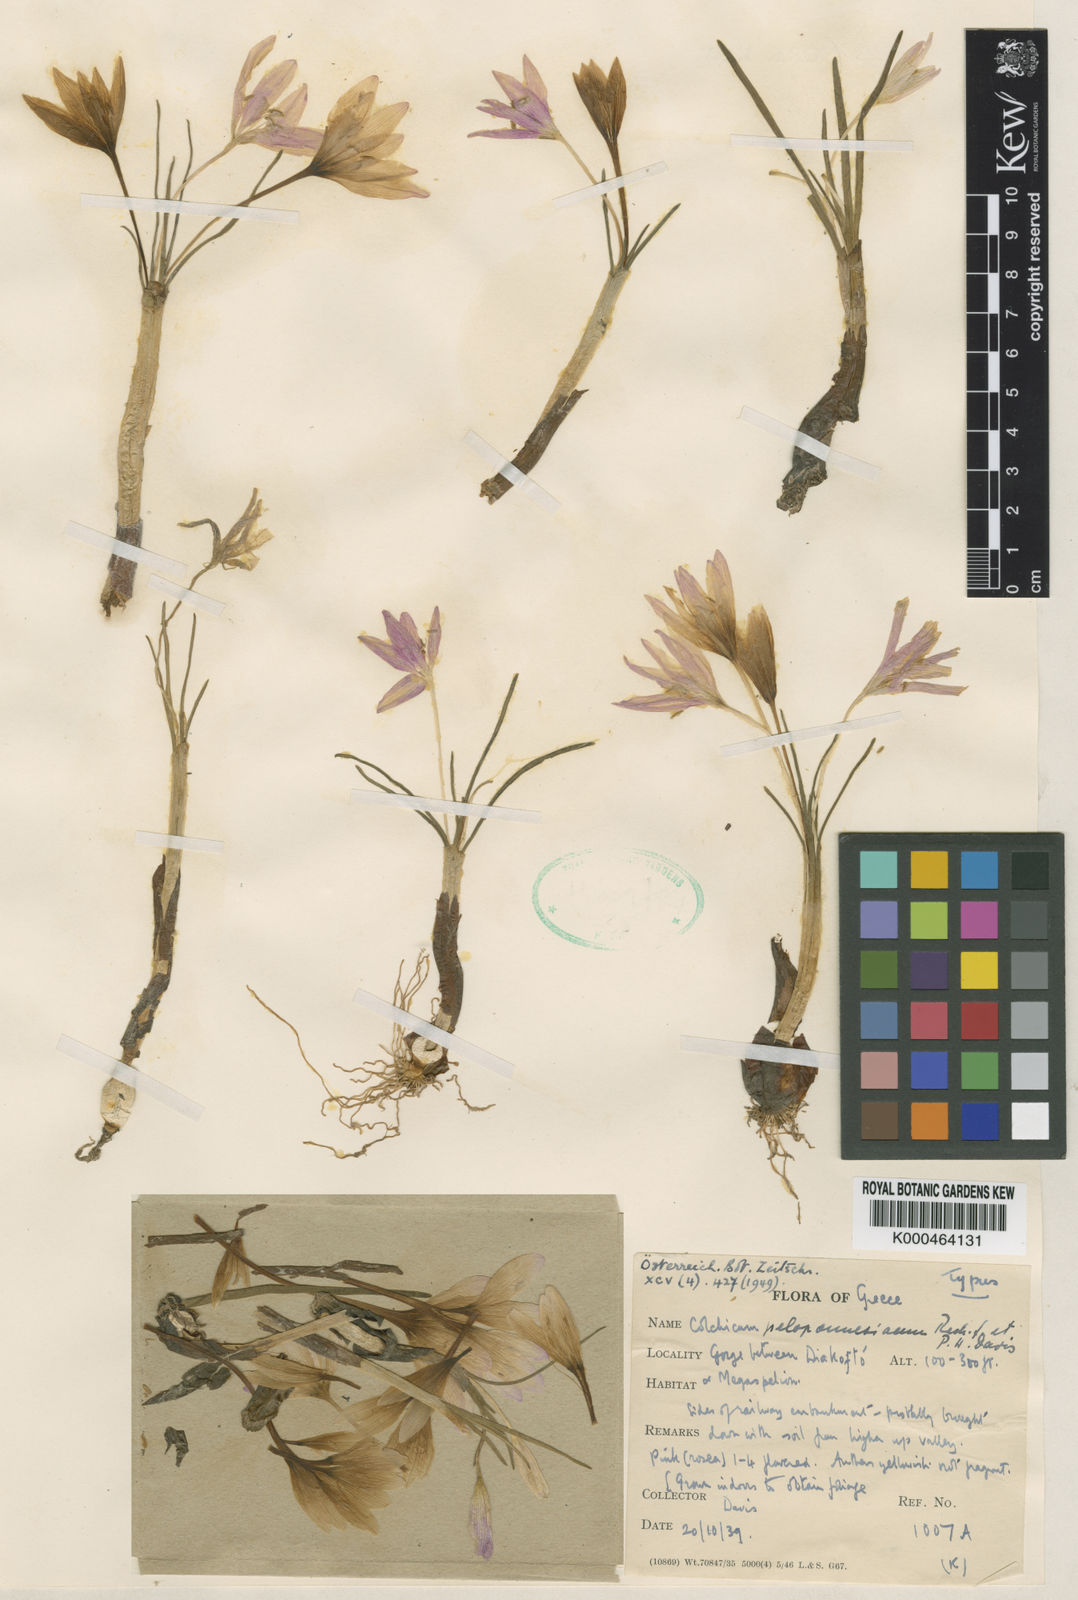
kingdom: Plantae
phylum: Tracheophyta
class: Liliopsida
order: Liliales
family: Colchicaceae
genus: Colchicum
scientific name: Colchicum peloponnesiacum
